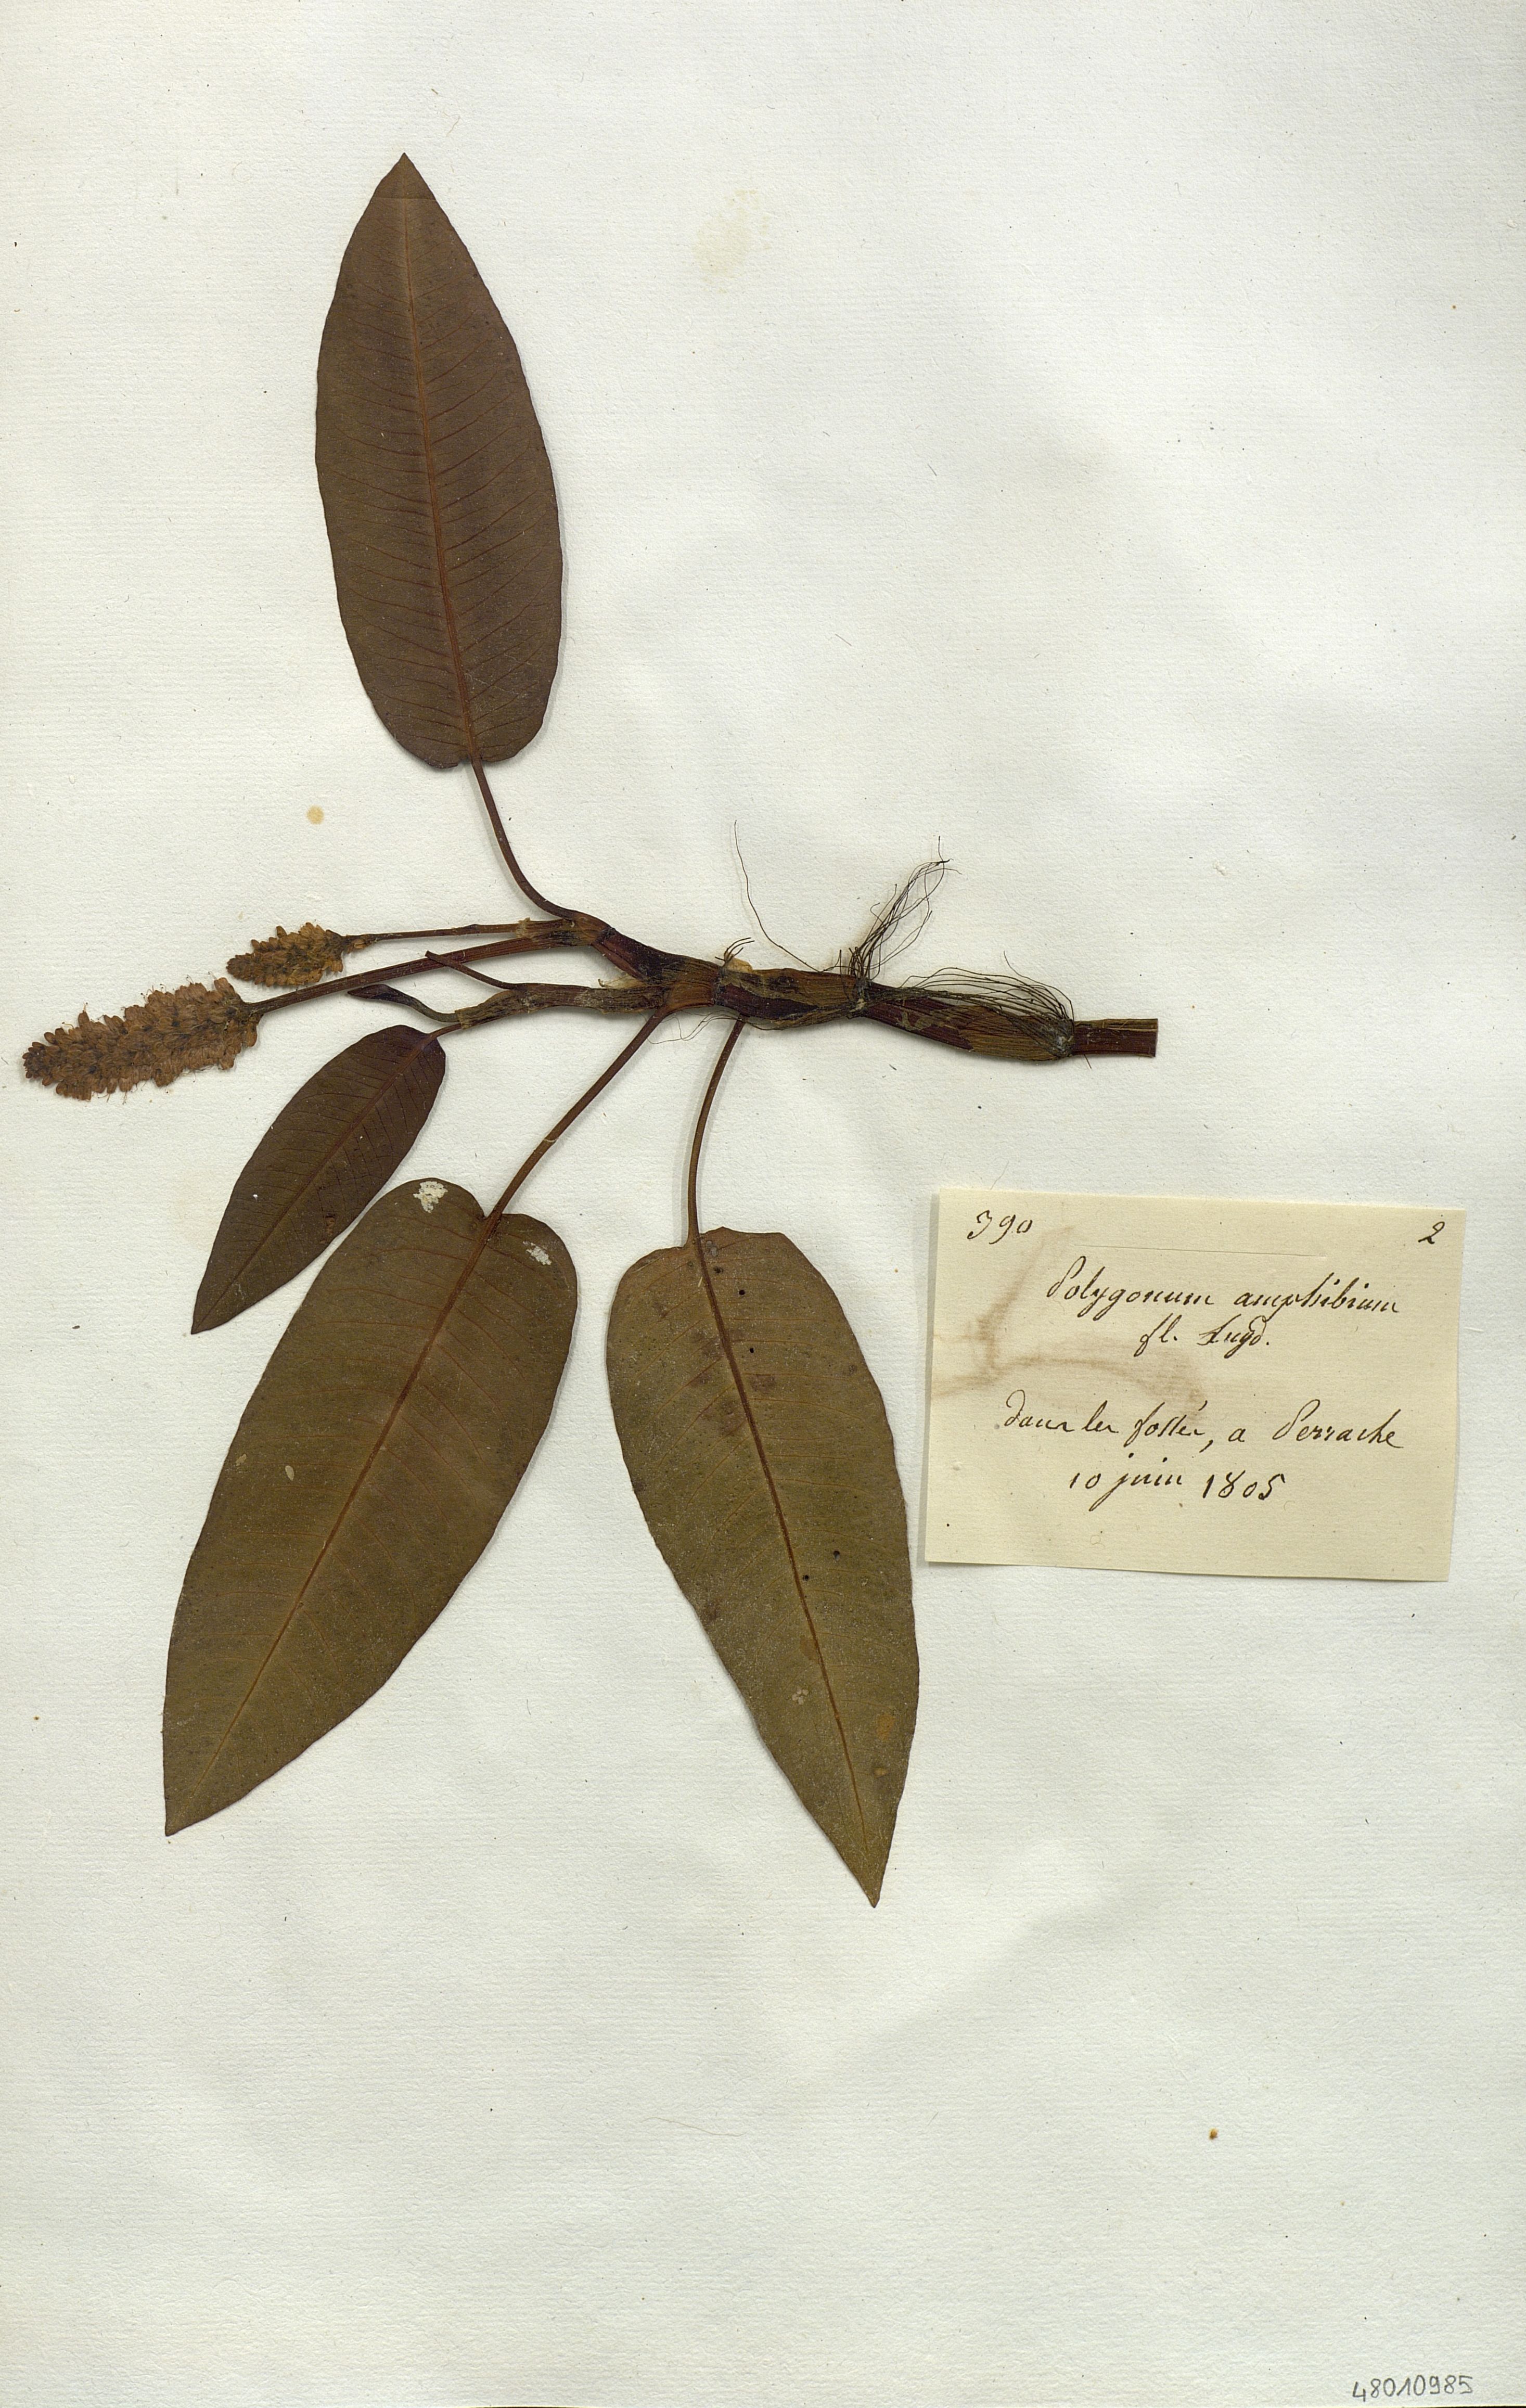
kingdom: Plantae
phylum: Tracheophyta
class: Magnoliopsida
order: Caryophyllales
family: Polygonaceae
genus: Persicaria
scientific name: Persicaria amphibia
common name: Amphibious bistort
